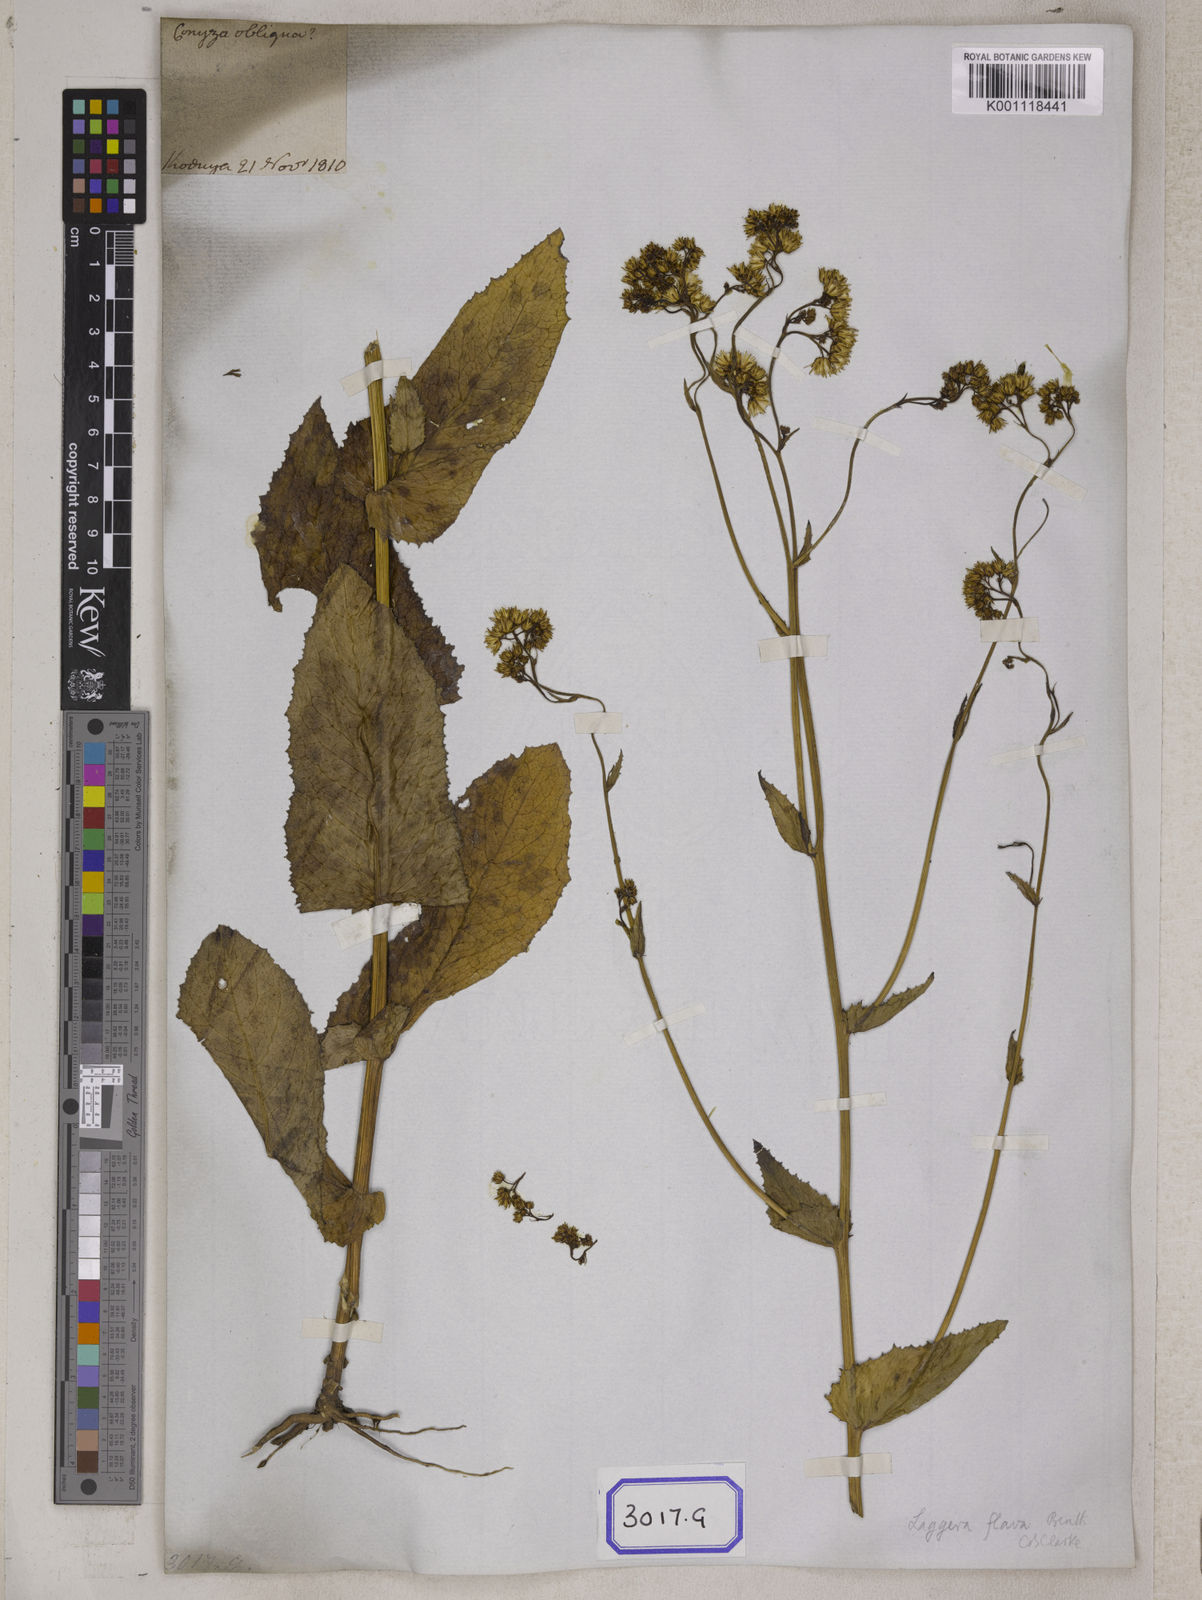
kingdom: Plantae
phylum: Tracheophyta
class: Magnoliopsida
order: Asterales
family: Asteraceae
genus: Blumea
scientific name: Blumea sessiliflora
